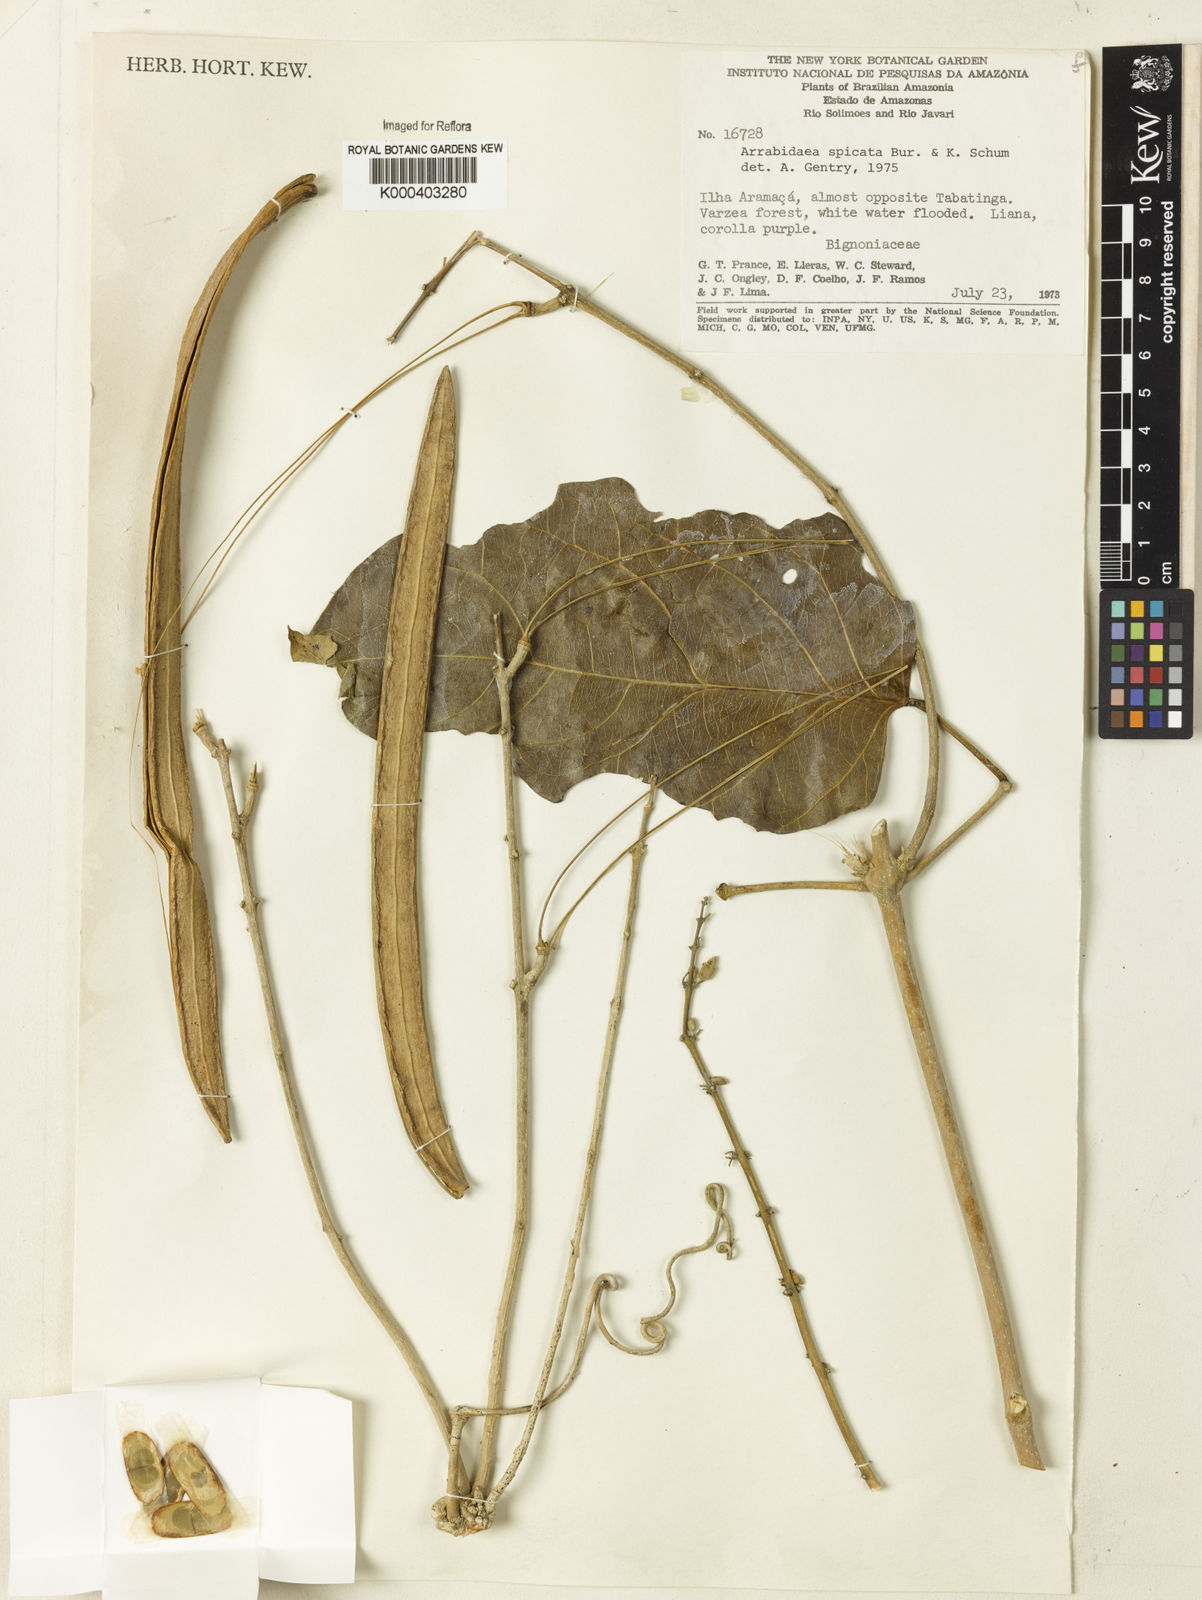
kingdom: Plantae
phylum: Tracheophyta
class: Magnoliopsida
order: Lamiales
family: Bignoniaceae
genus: Fridericia
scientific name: Fridericia spicata
